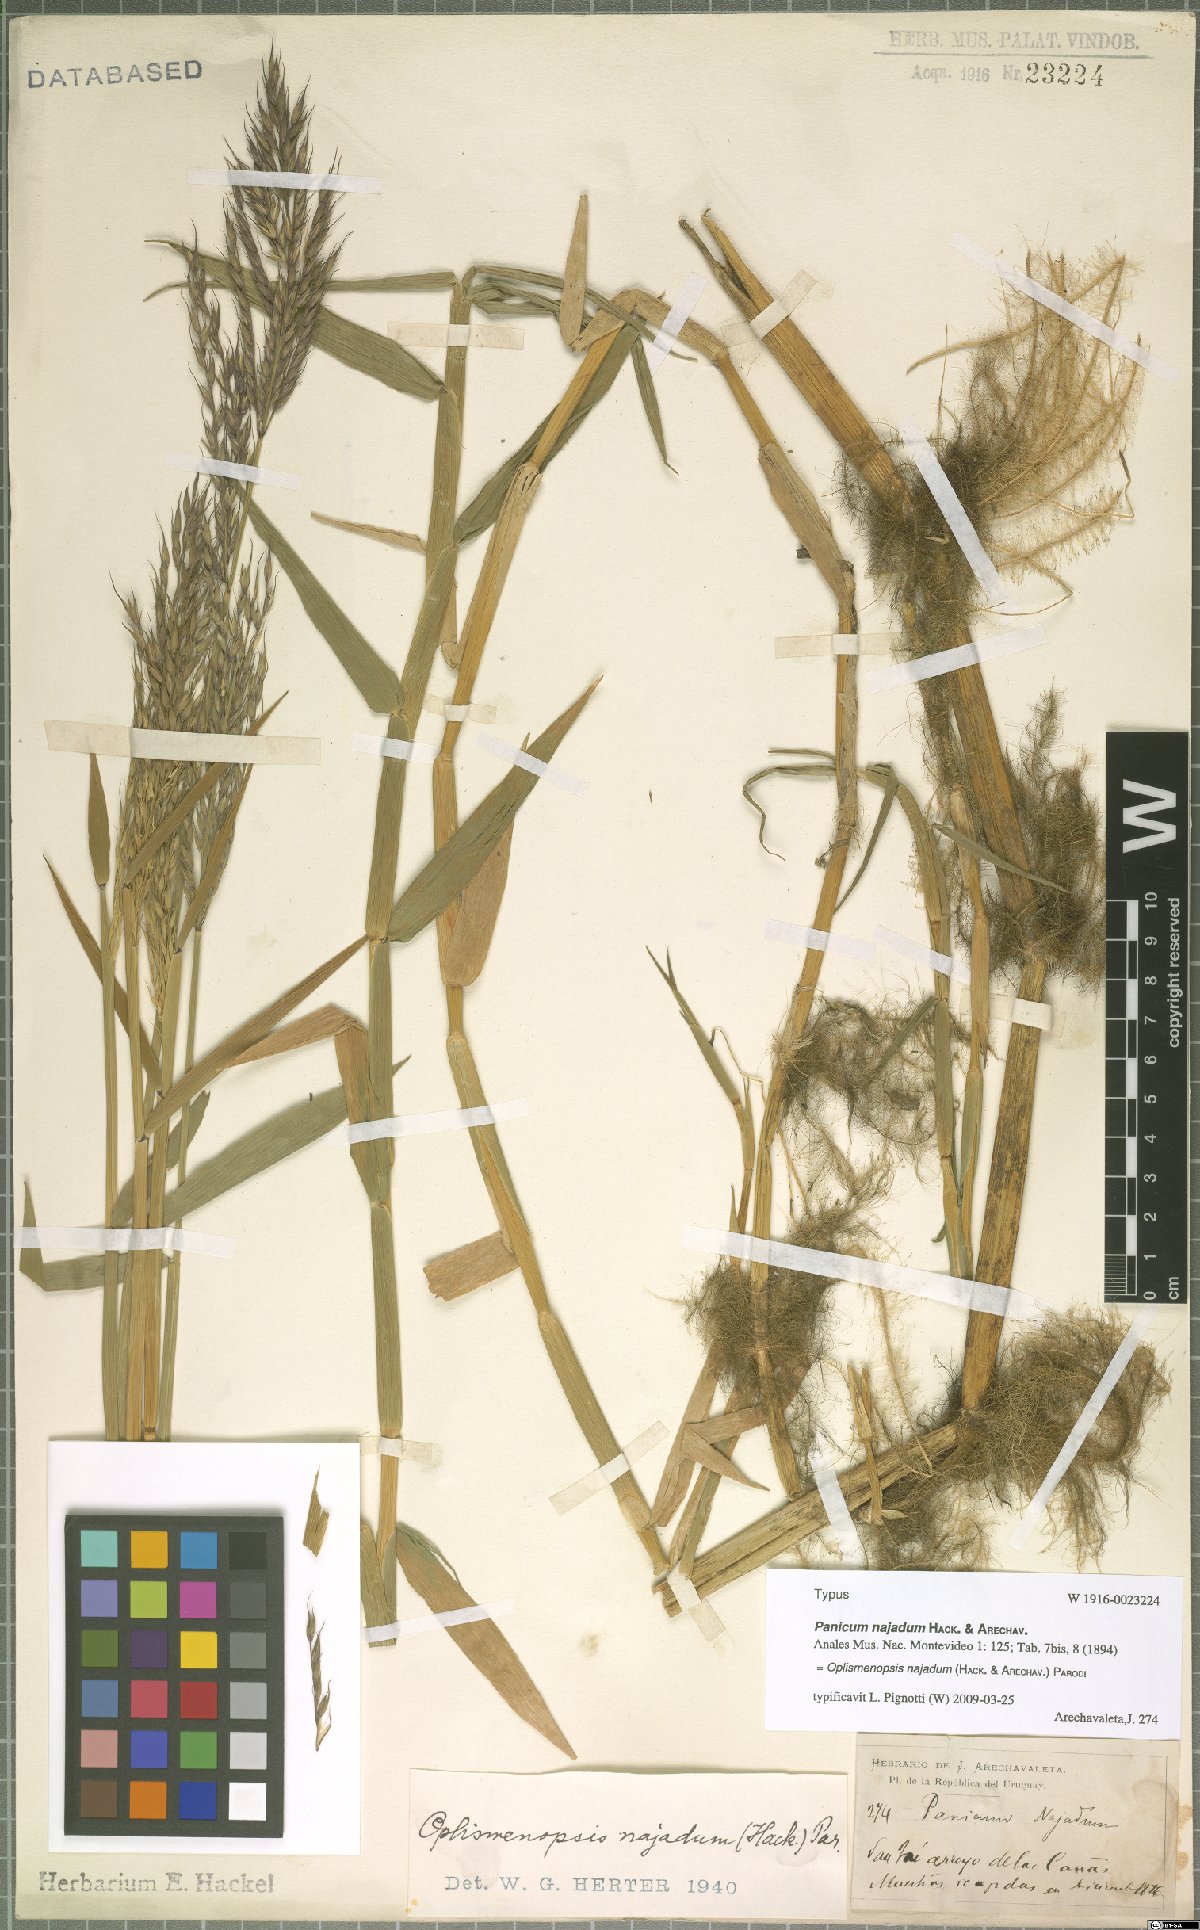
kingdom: Plantae
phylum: Tracheophyta
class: Liliopsida
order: Poales
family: Poaceae
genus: Oplismenopsis
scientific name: Oplismenopsis najada
